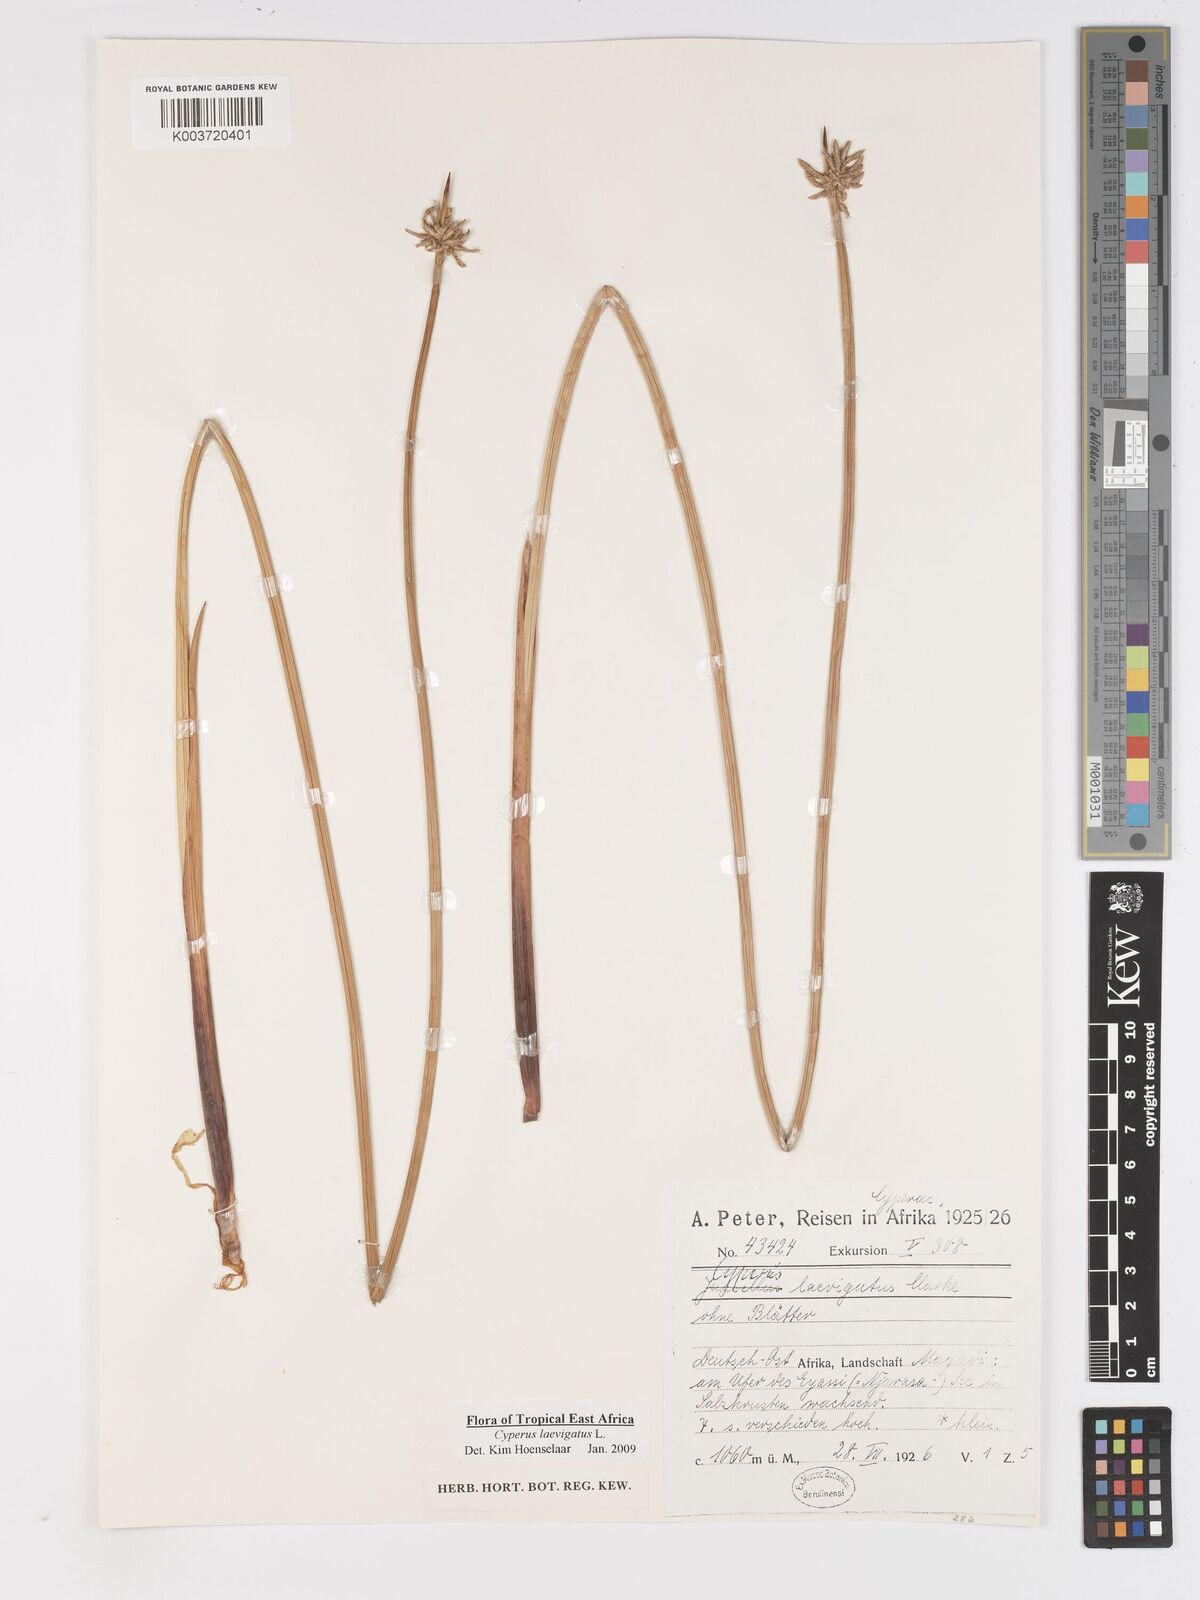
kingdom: Plantae
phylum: Tracheophyta
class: Liliopsida
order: Poales
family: Cyperaceae
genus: Cyperus
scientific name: Cyperus laevigatus
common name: Smooth flat sedge
